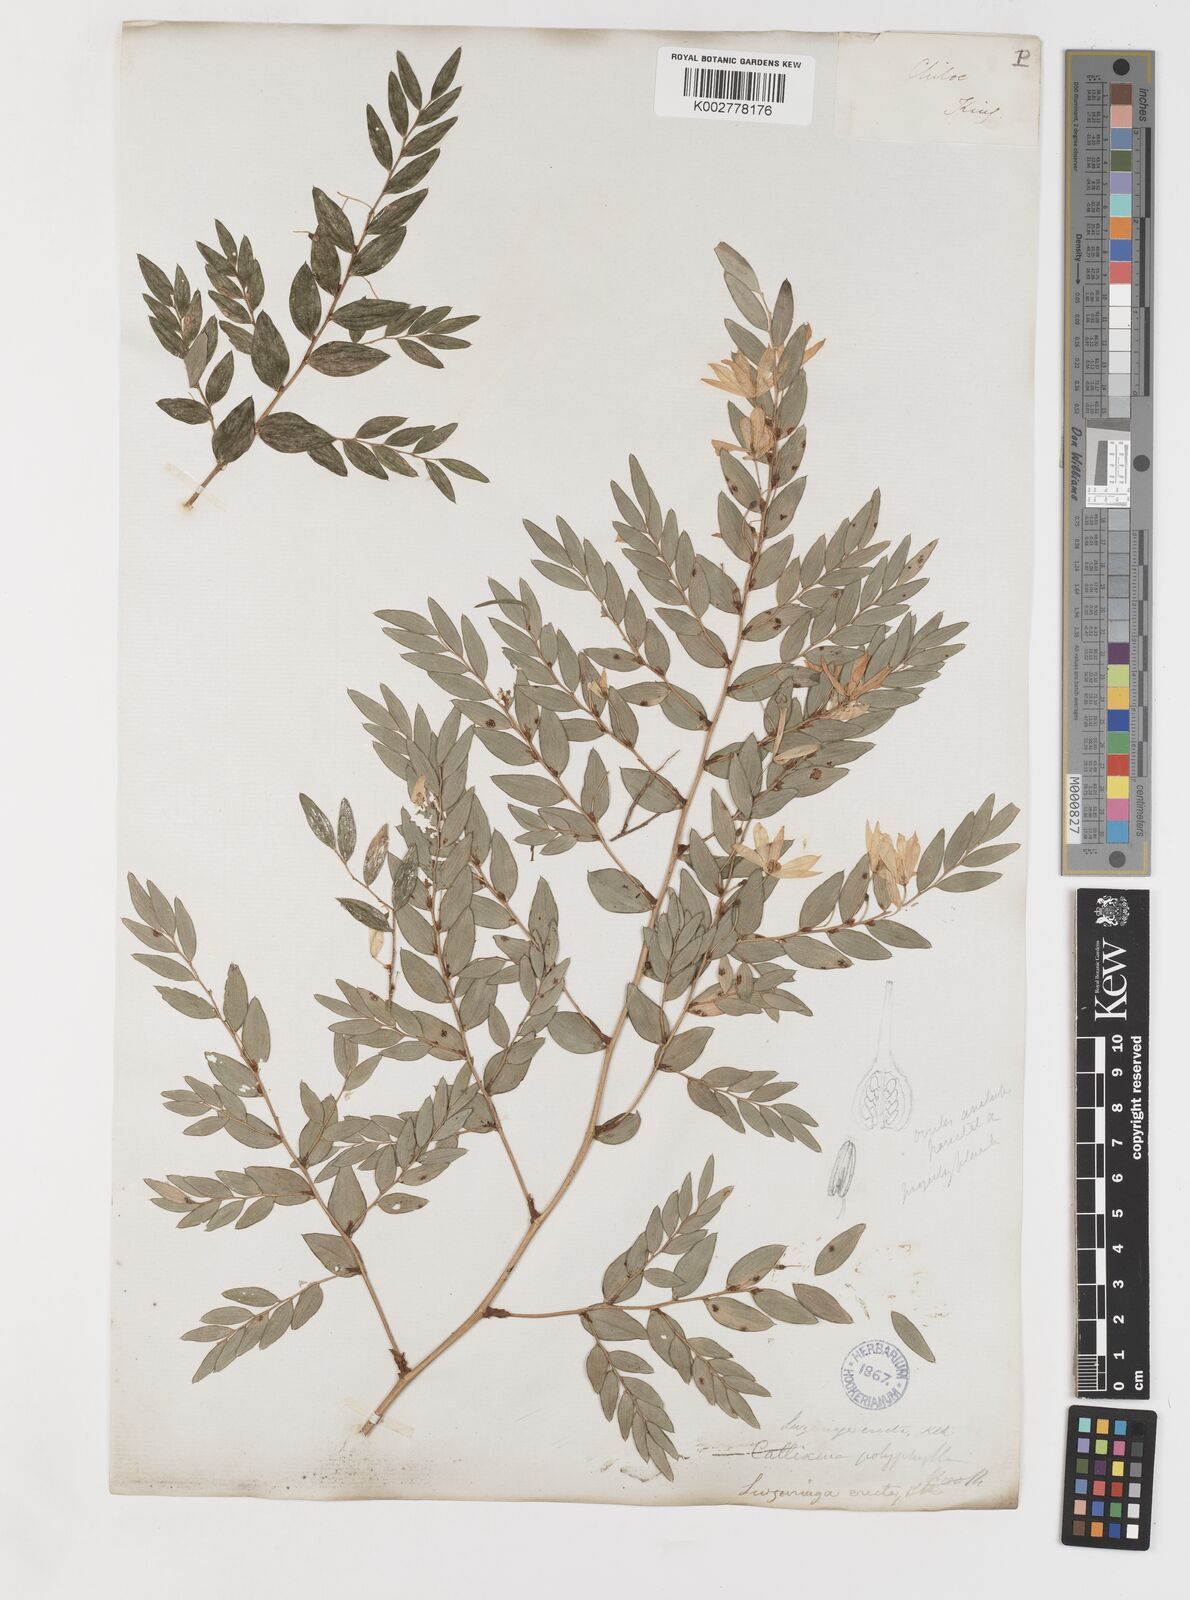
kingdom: Plantae
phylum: Tracheophyta
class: Liliopsida
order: Liliales
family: Alstroemeriaceae
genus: Luzuriaga
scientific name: Luzuriaga polyphylla
